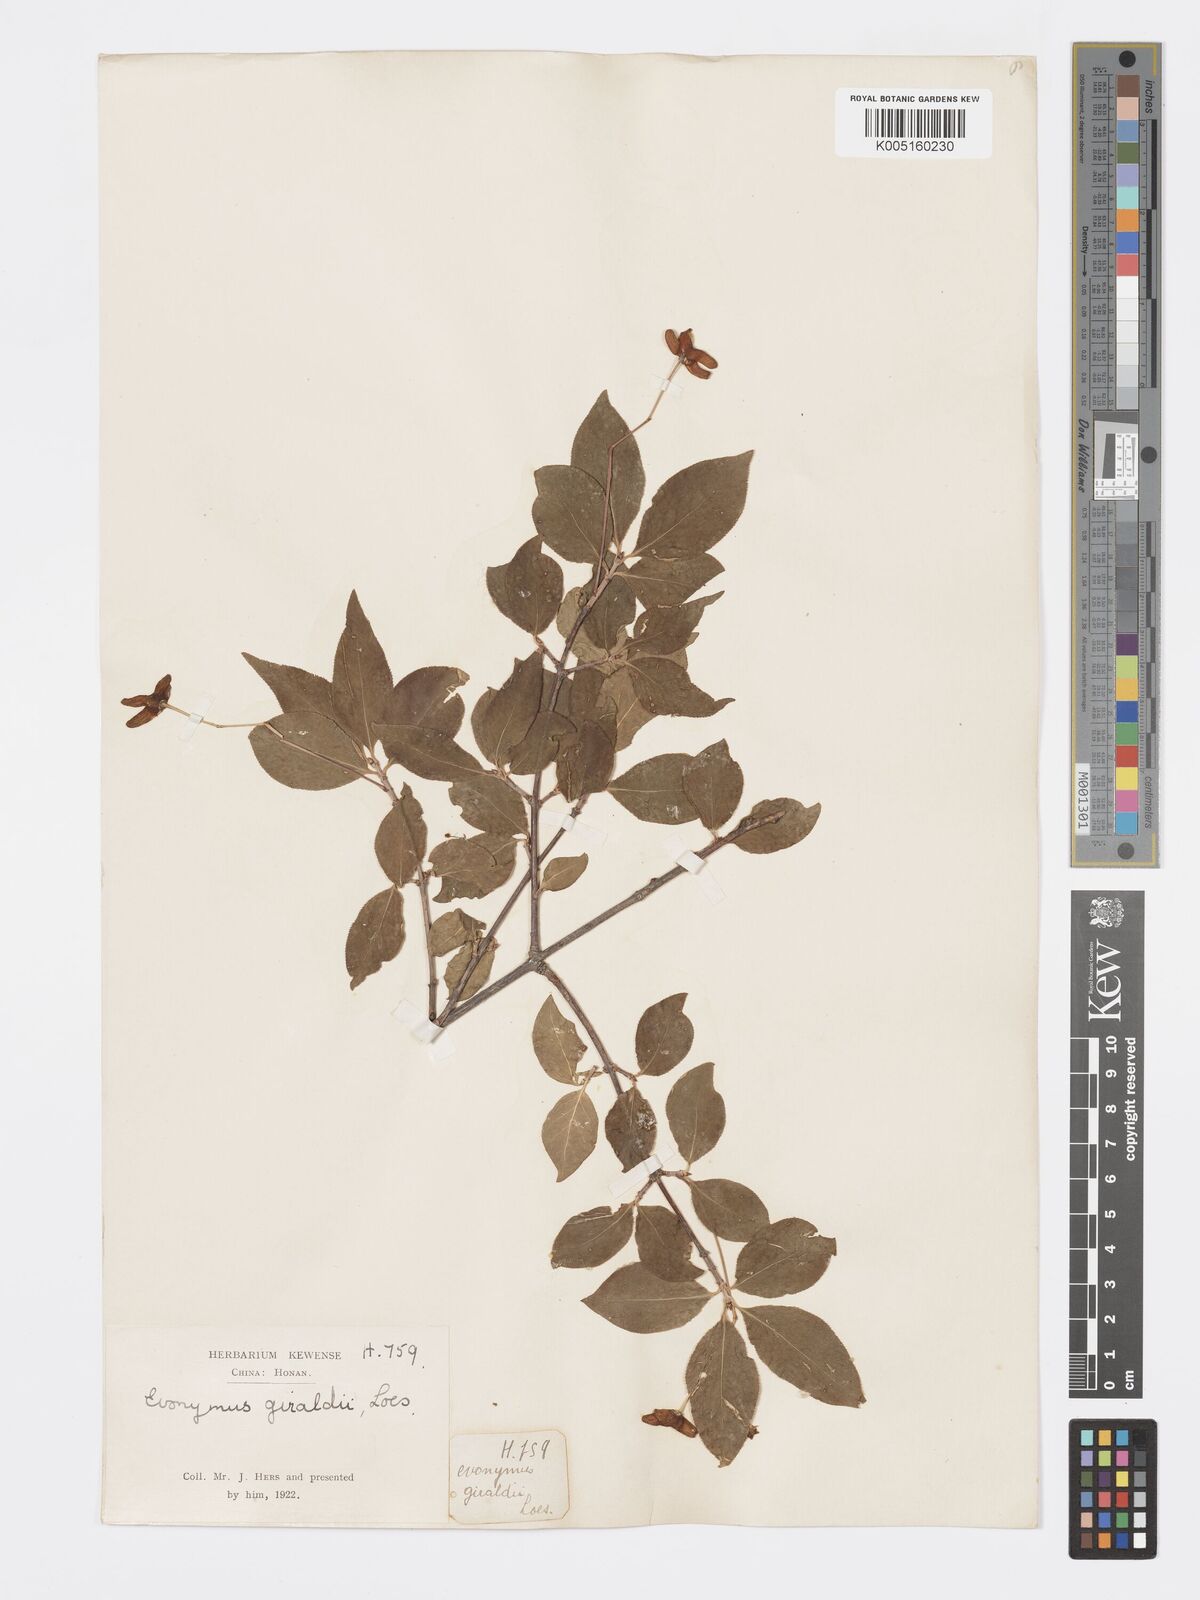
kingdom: Plantae
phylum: Tracheophyta
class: Magnoliopsida
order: Celastrales
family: Celastraceae
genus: Euonymus
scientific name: Euonymus giraldii
